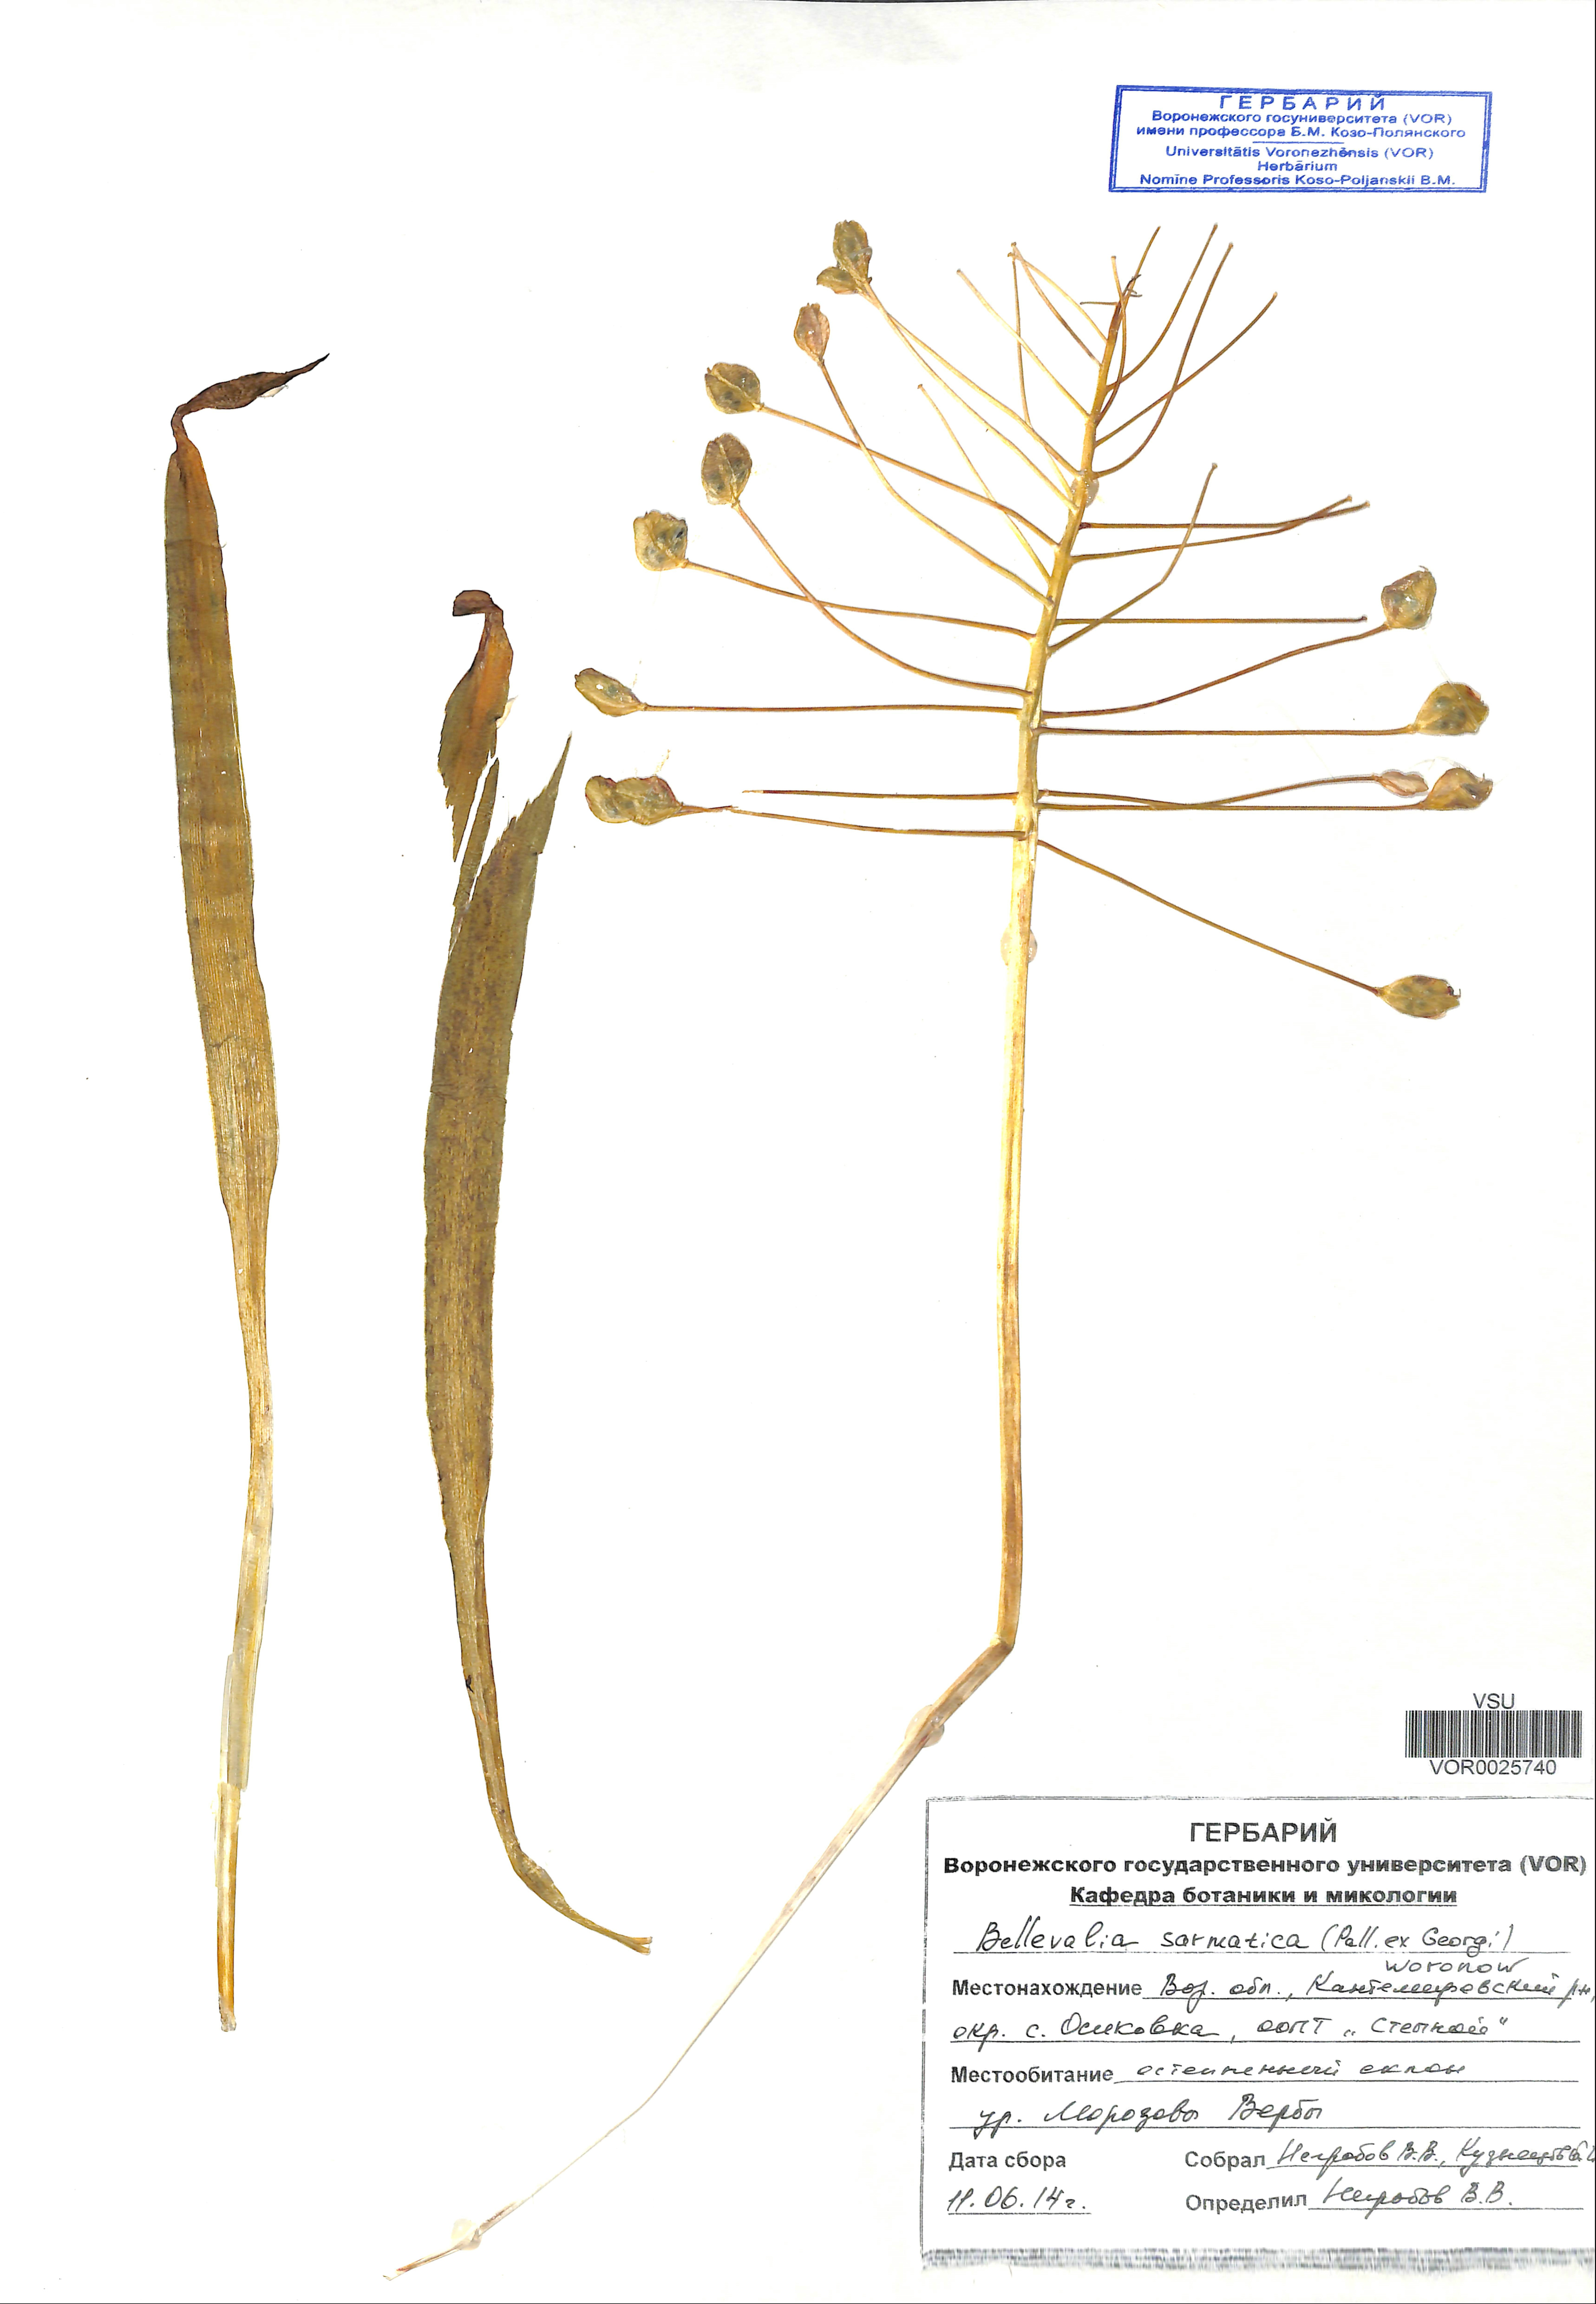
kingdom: Plantae
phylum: Tracheophyta
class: Liliopsida
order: Asparagales
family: Asparagaceae
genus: Bellevalia
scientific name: Bellevalia speciosa
